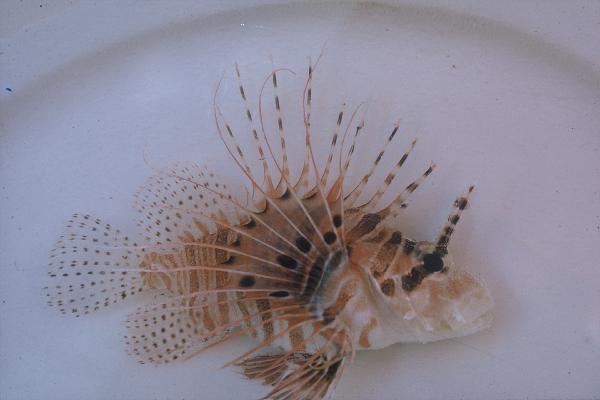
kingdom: Animalia
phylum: Chordata
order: Scorpaeniformes
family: Scorpaenidae
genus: Pterois
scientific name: Pterois antennata
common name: Spotfin lionfish
